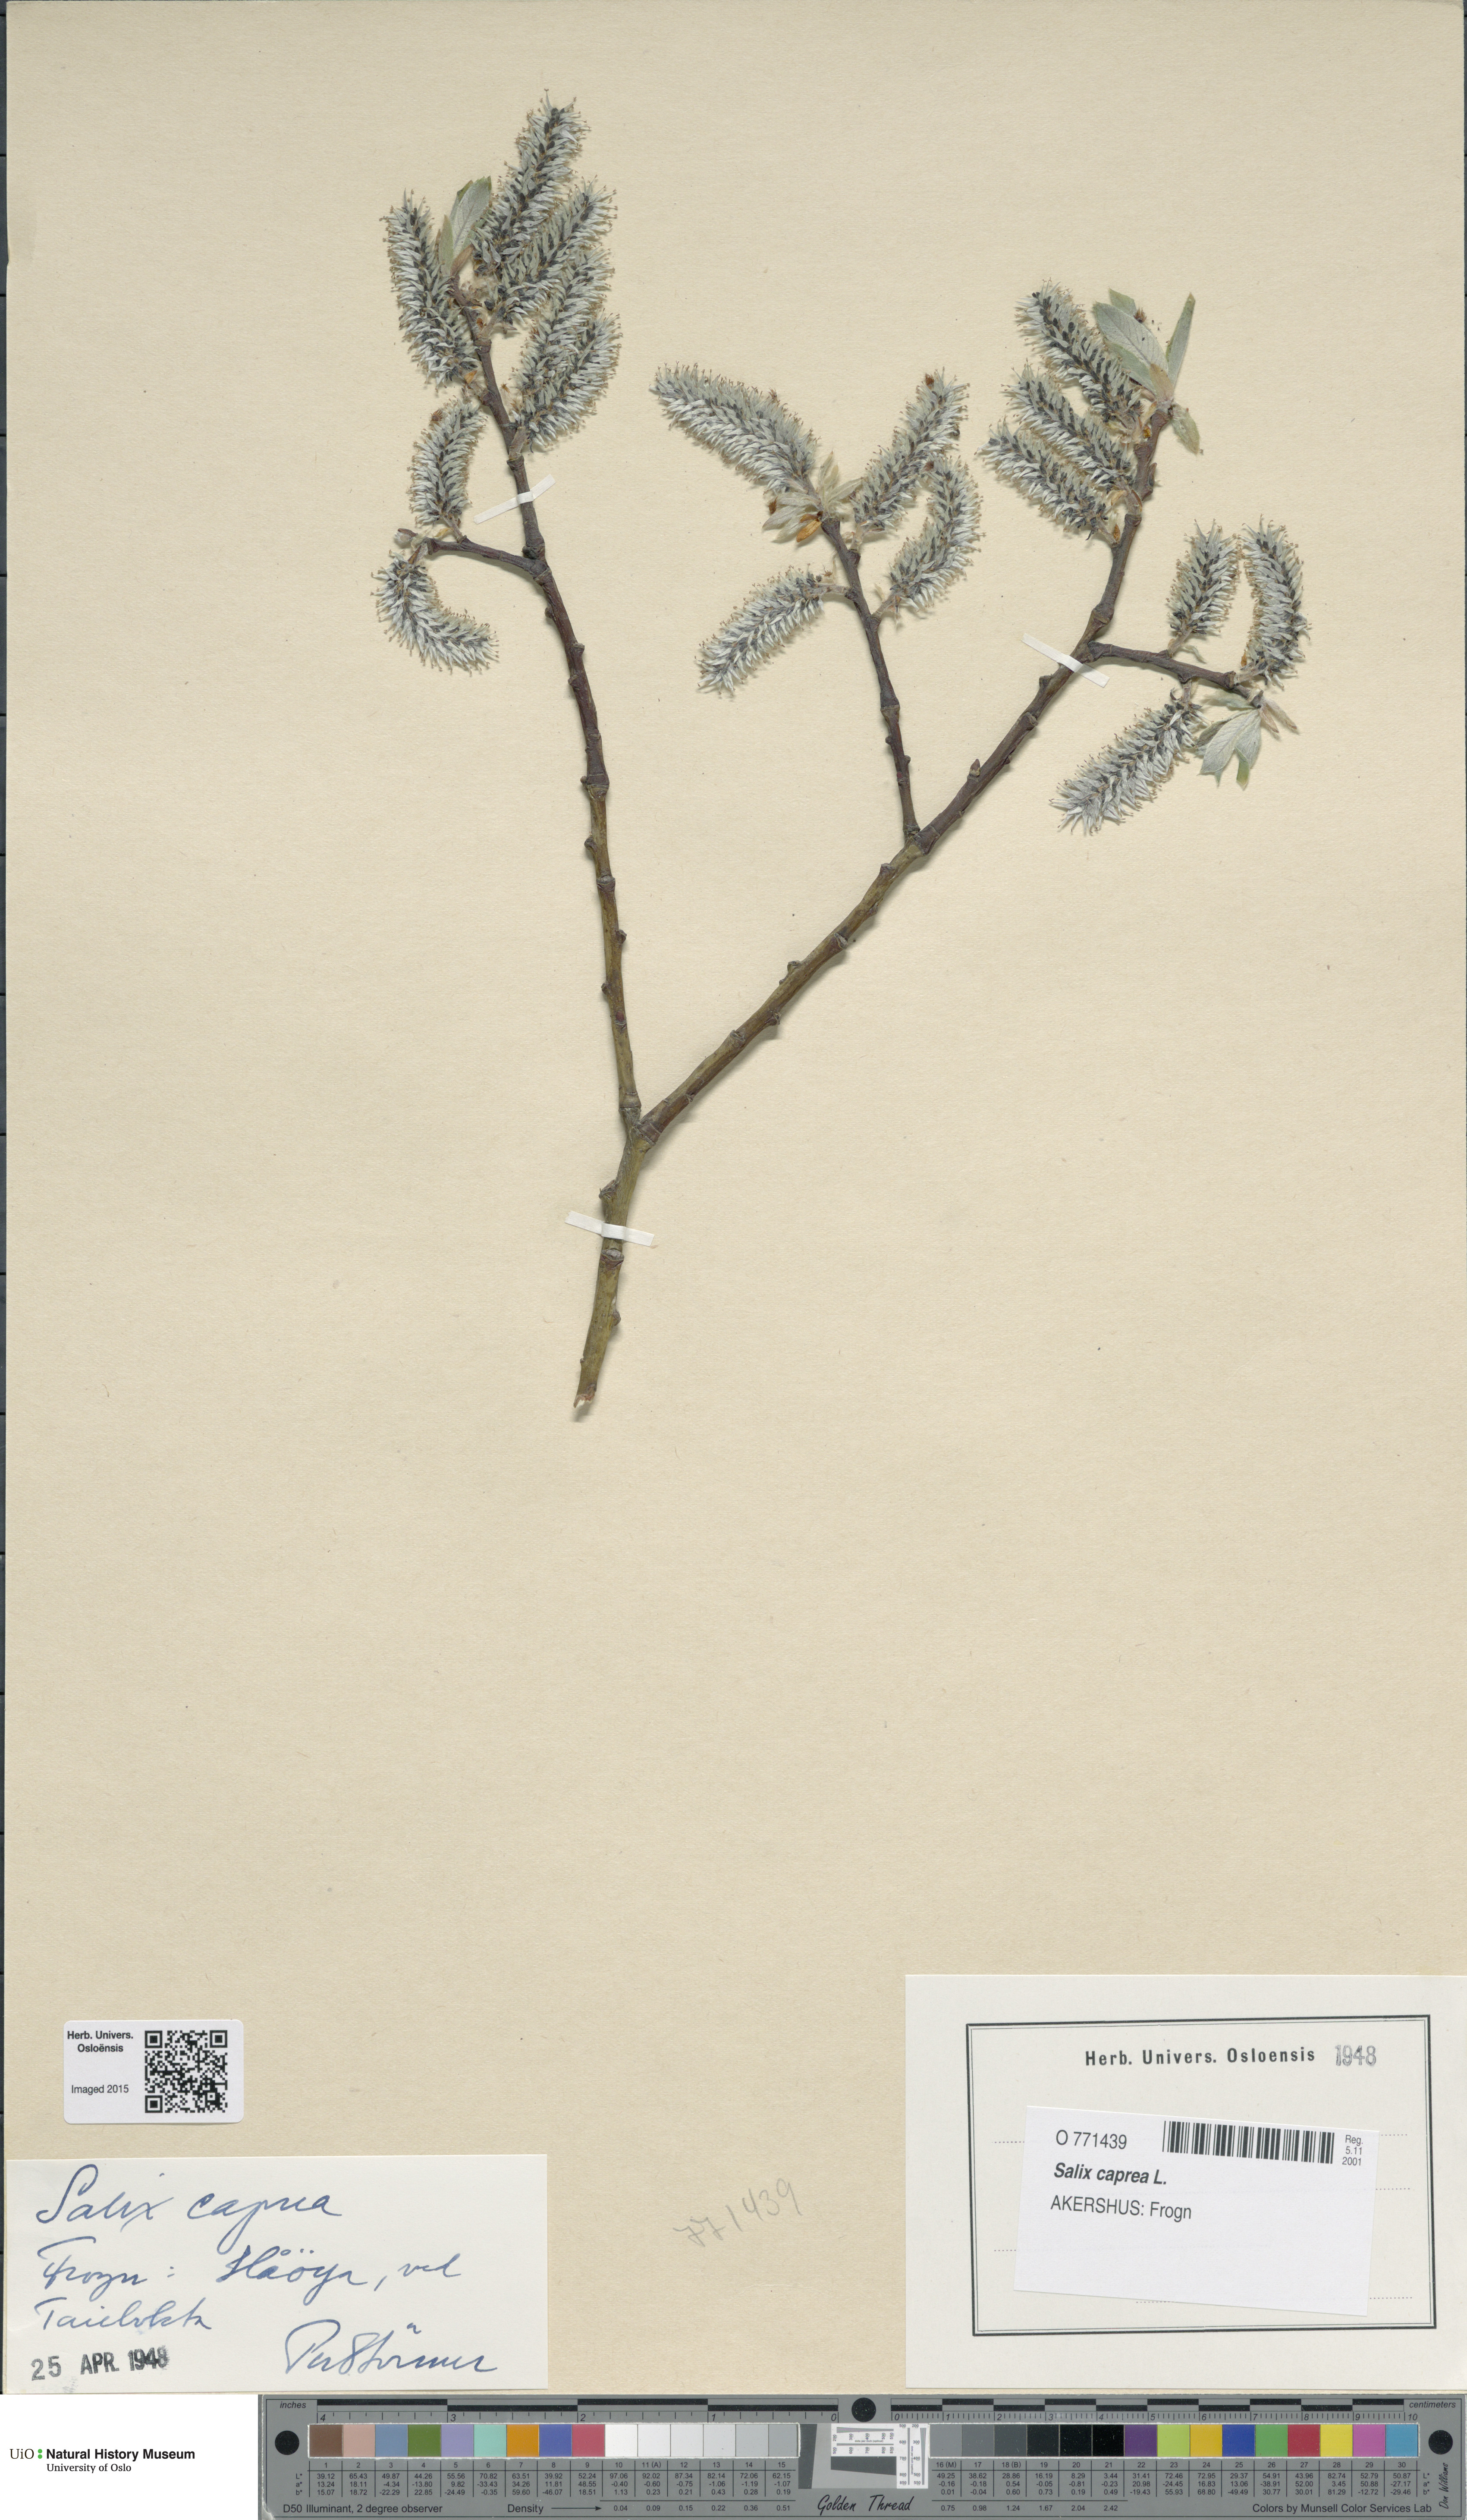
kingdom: Plantae
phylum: Tracheophyta
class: Magnoliopsida
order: Malpighiales
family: Salicaceae
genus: Salix
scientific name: Salix caprea
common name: Goat willow
